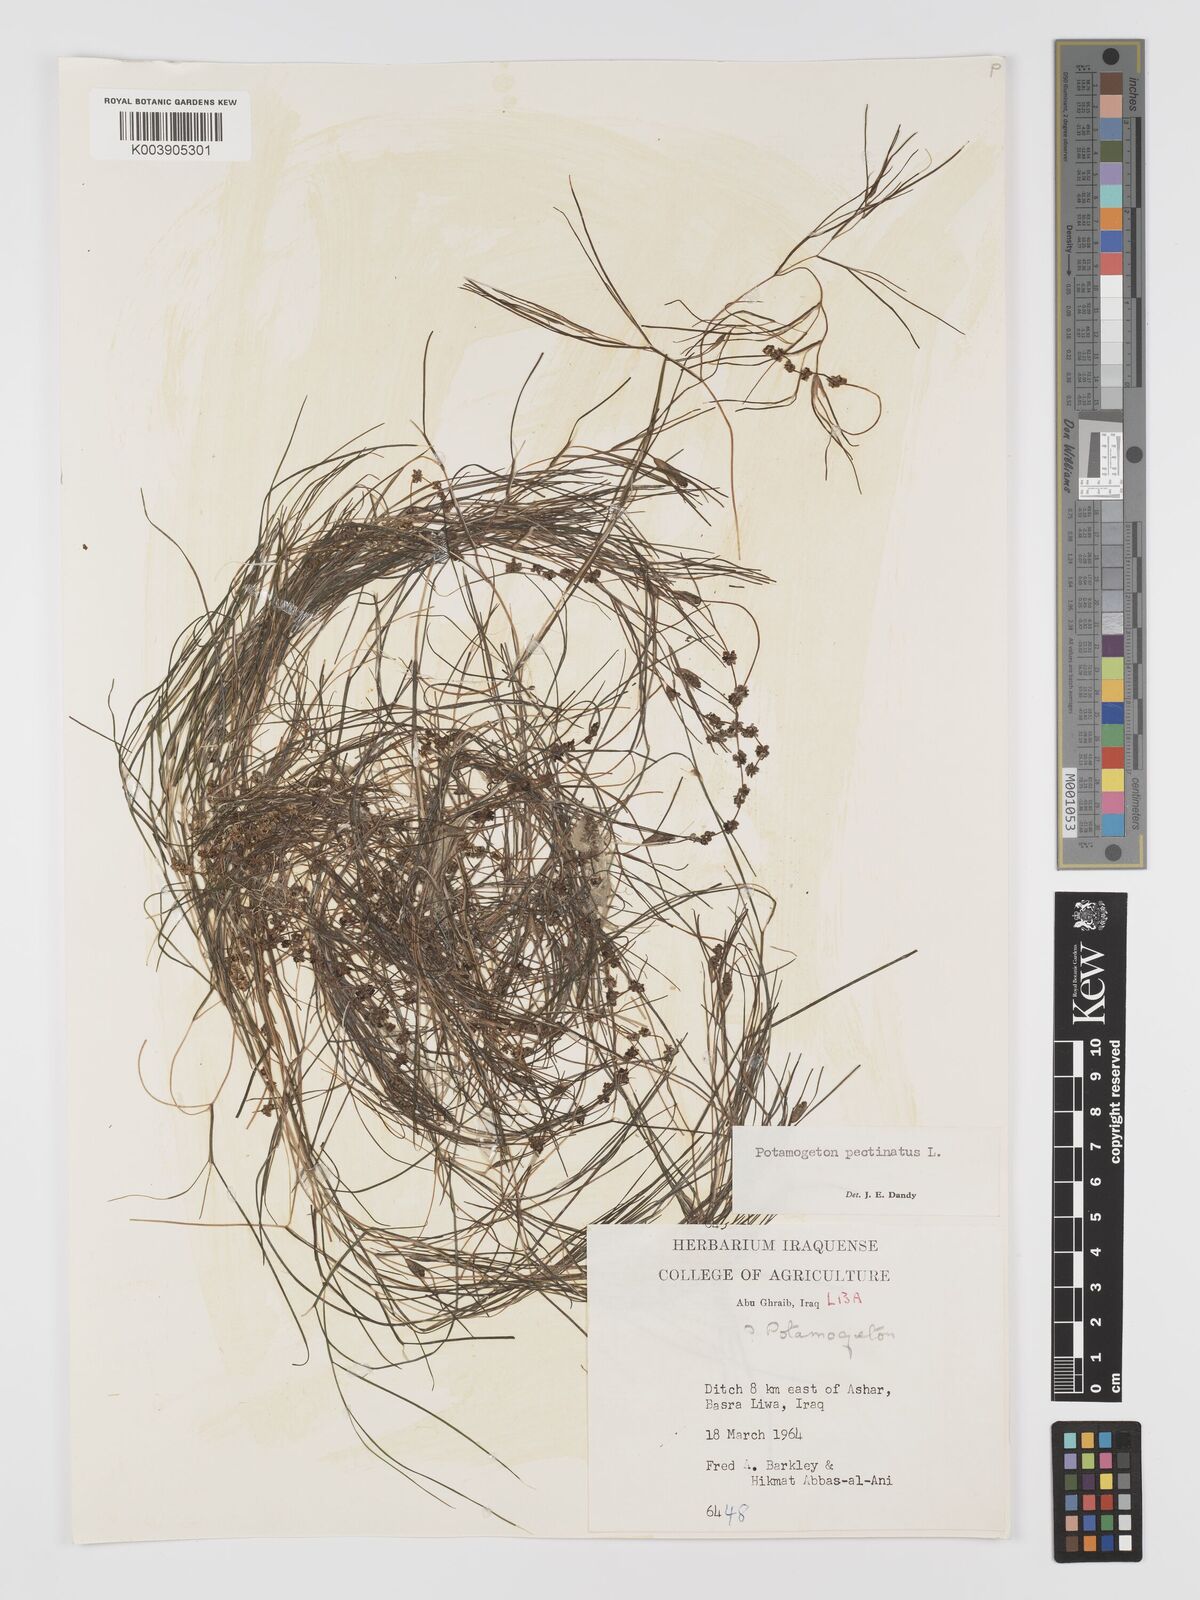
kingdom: Plantae
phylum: Tracheophyta
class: Liliopsida
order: Alismatales
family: Potamogetonaceae
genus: Stuckenia
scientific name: Stuckenia pectinata
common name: Sago pondweed
